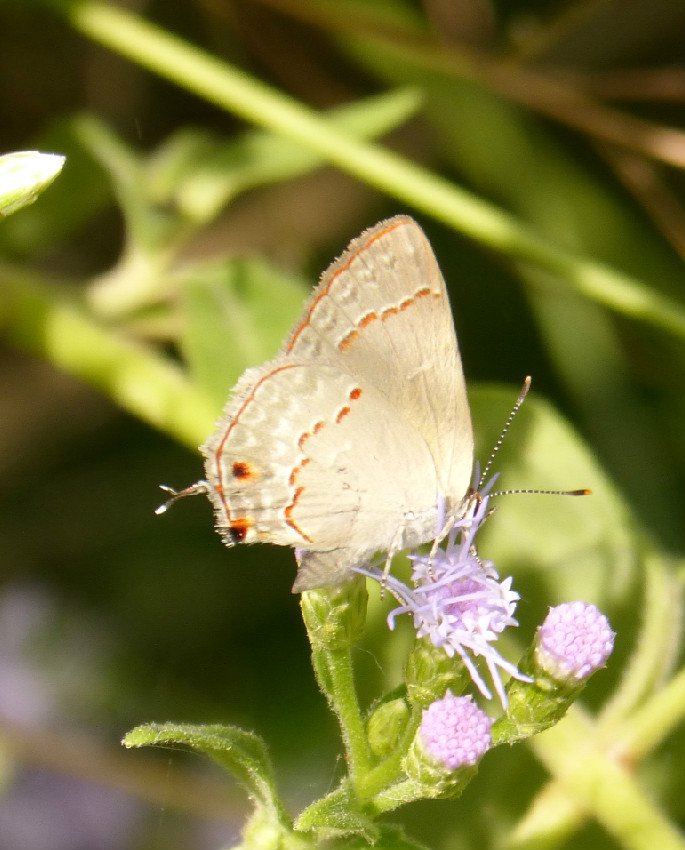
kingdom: Animalia
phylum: Arthropoda
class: Insecta
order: Lepidoptera
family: Lycaenidae
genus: Thecla
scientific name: Thecla rufofusca
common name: Red-crescent Scrub-Hairstreak
